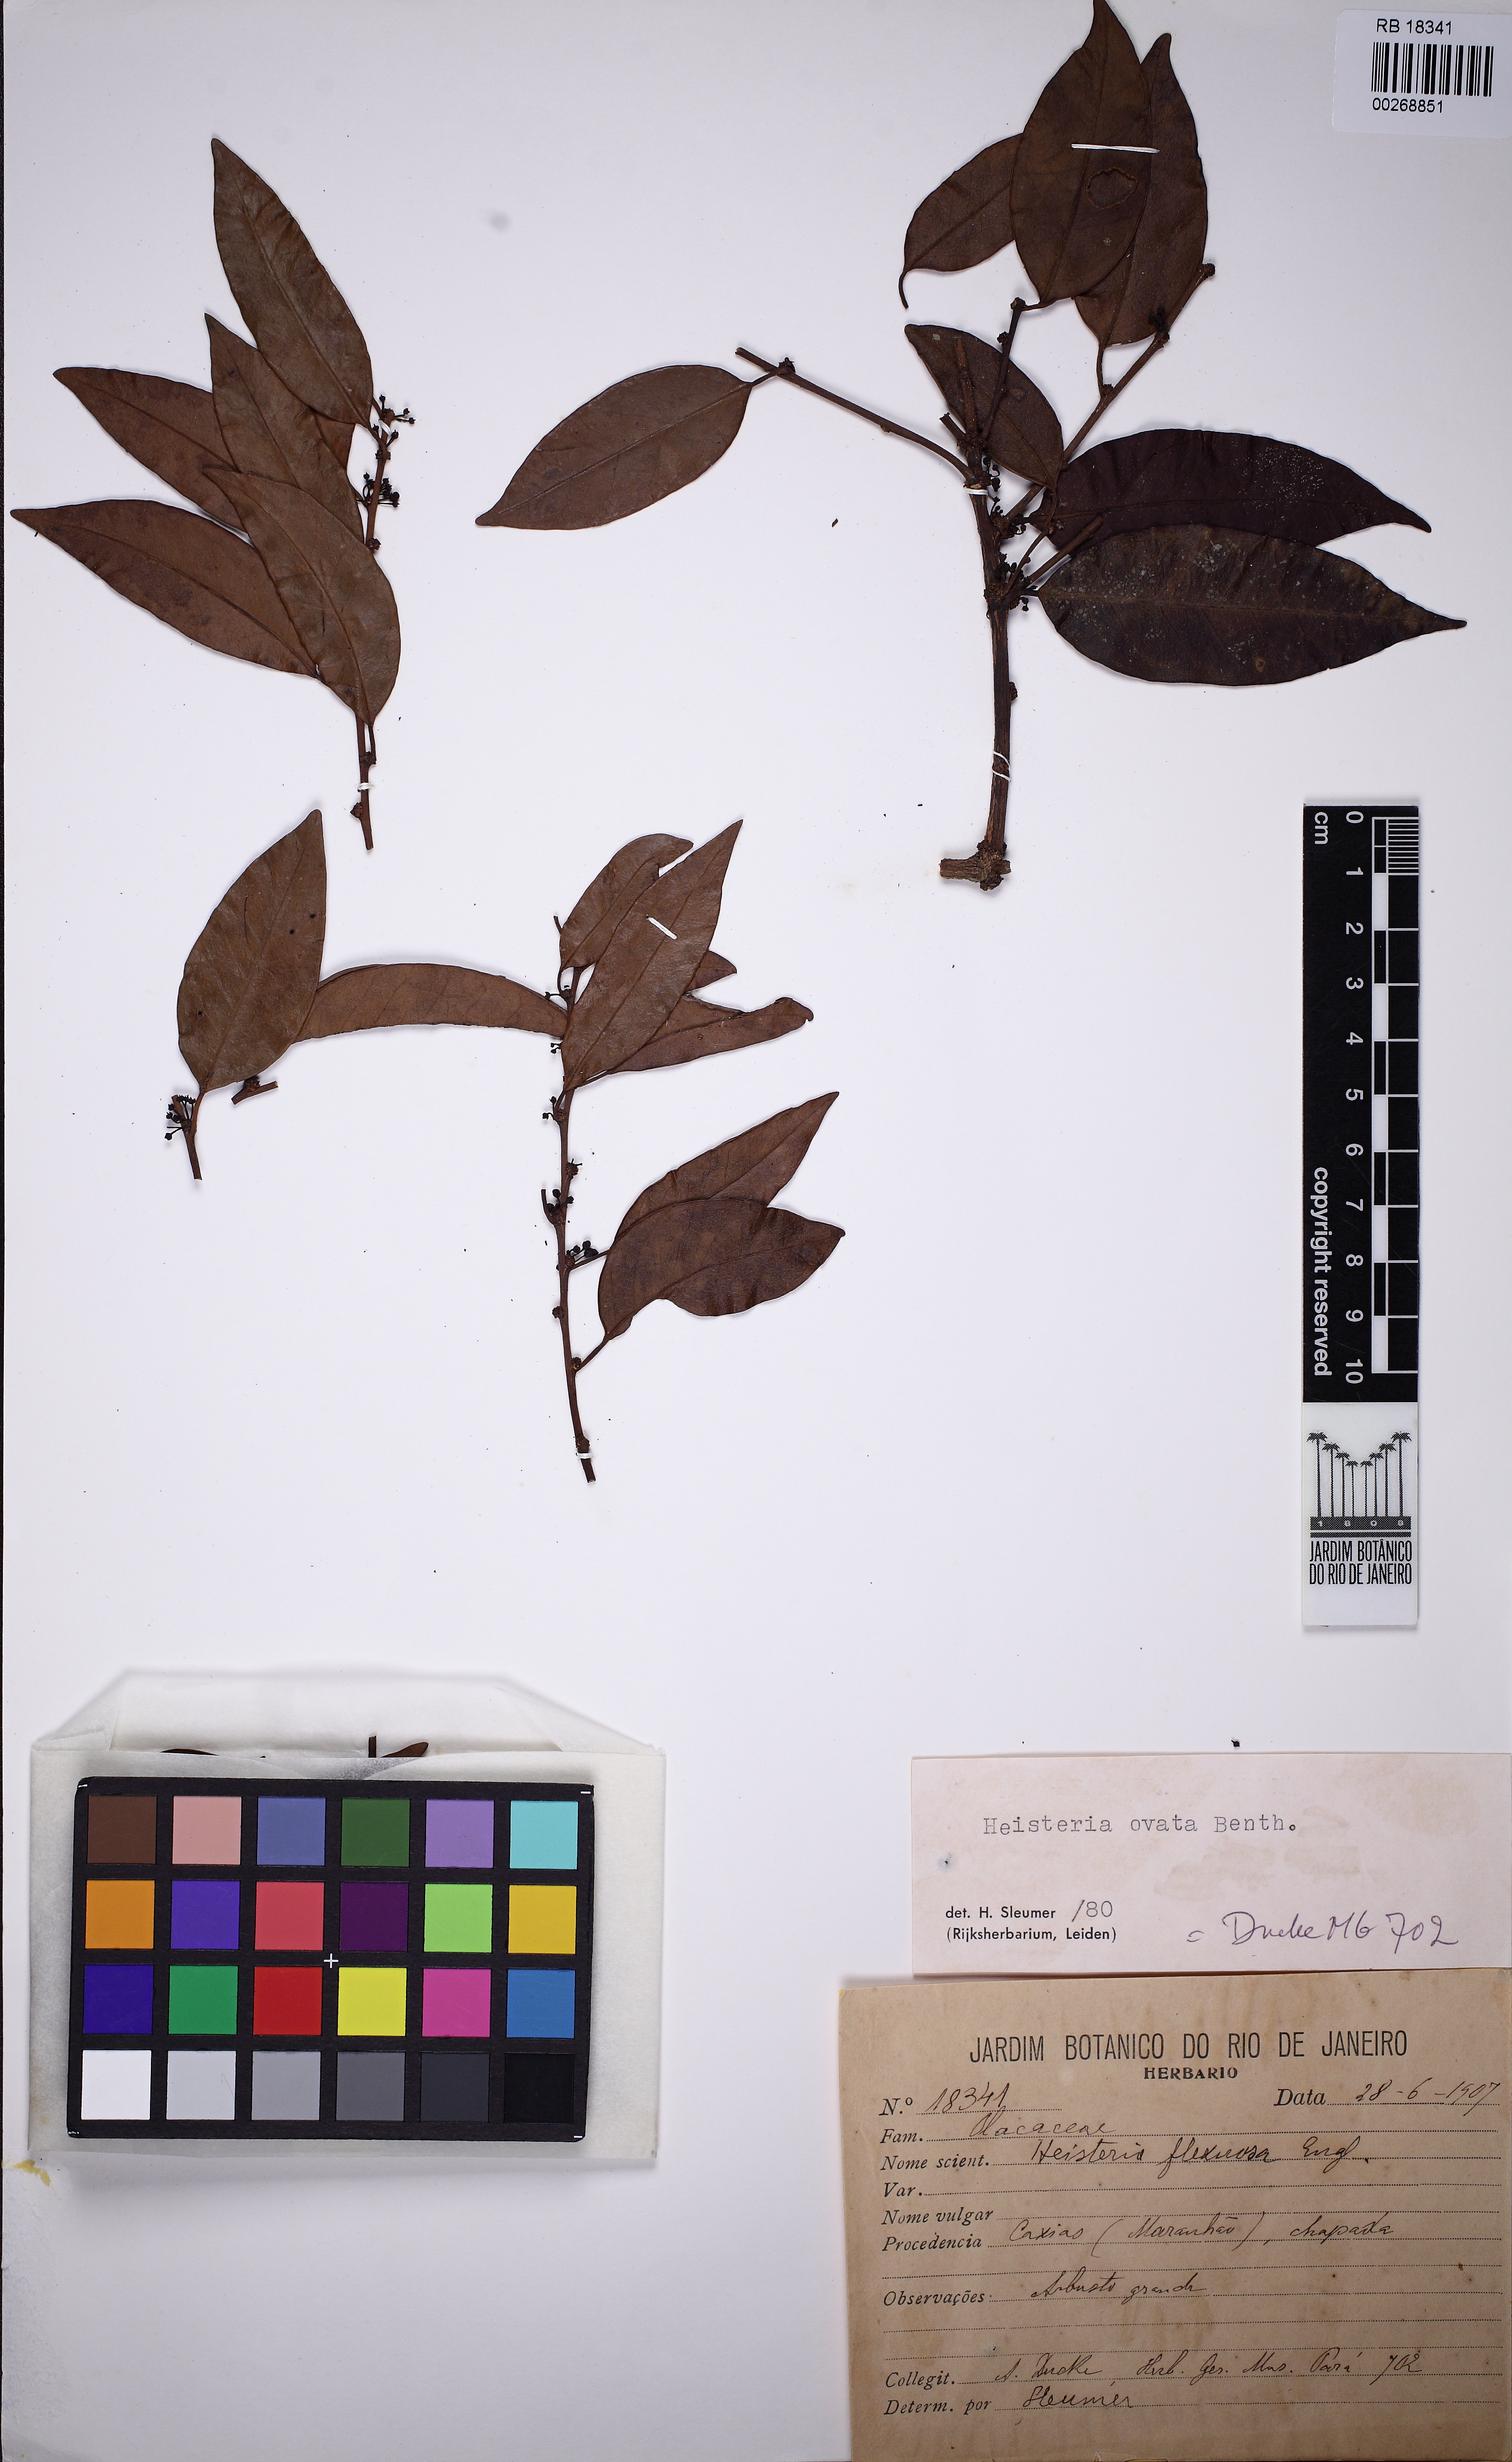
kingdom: Plantae
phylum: Tracheophyta
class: Magnoliopsida
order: Santalales
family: Erythropalaceae
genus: Heisteria
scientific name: Heisteria ovata
